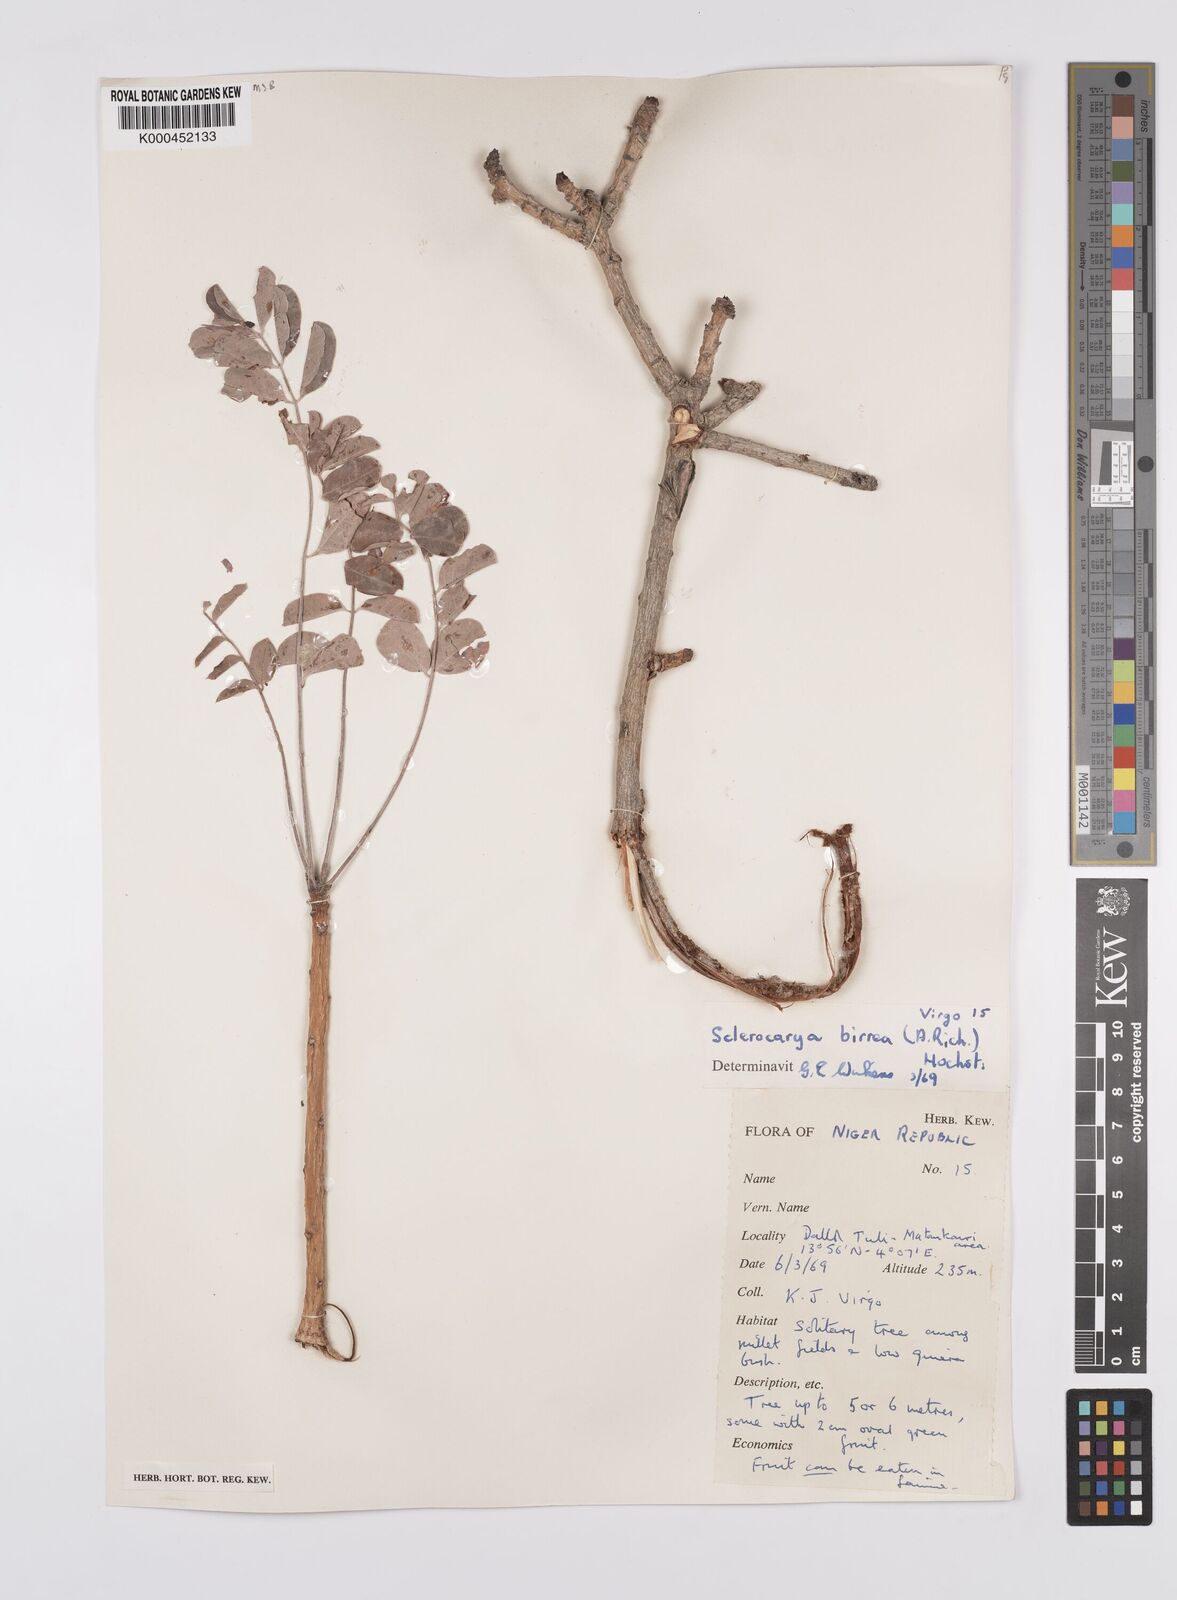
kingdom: Plantae
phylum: Tracheophyta
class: Magnoliopsida
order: Sapindales
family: Anacardiaceae
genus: Sclerocarya
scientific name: Sclerocarya birrea
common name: Marula
